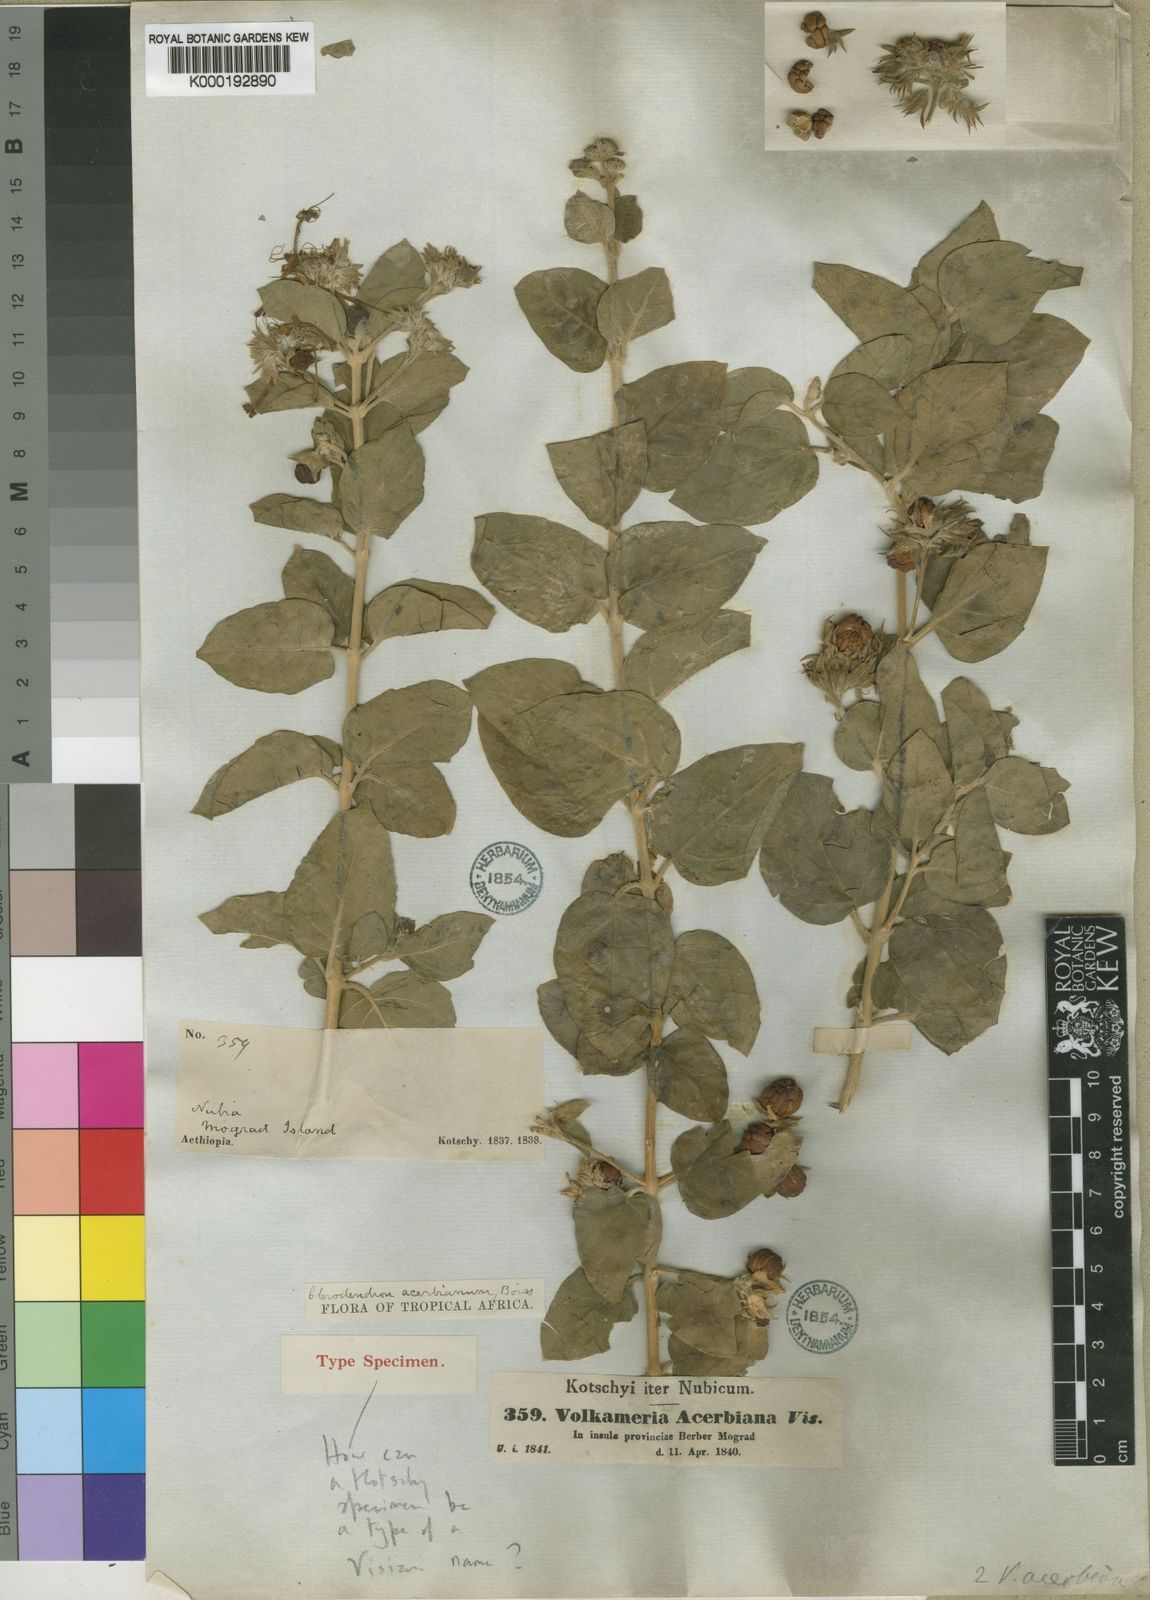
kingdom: Plantae
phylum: Tracheophyta
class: Magnoliopsida
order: Lamiales
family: Lamiaceae
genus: Volkameria
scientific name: Volkameria acerbiana
